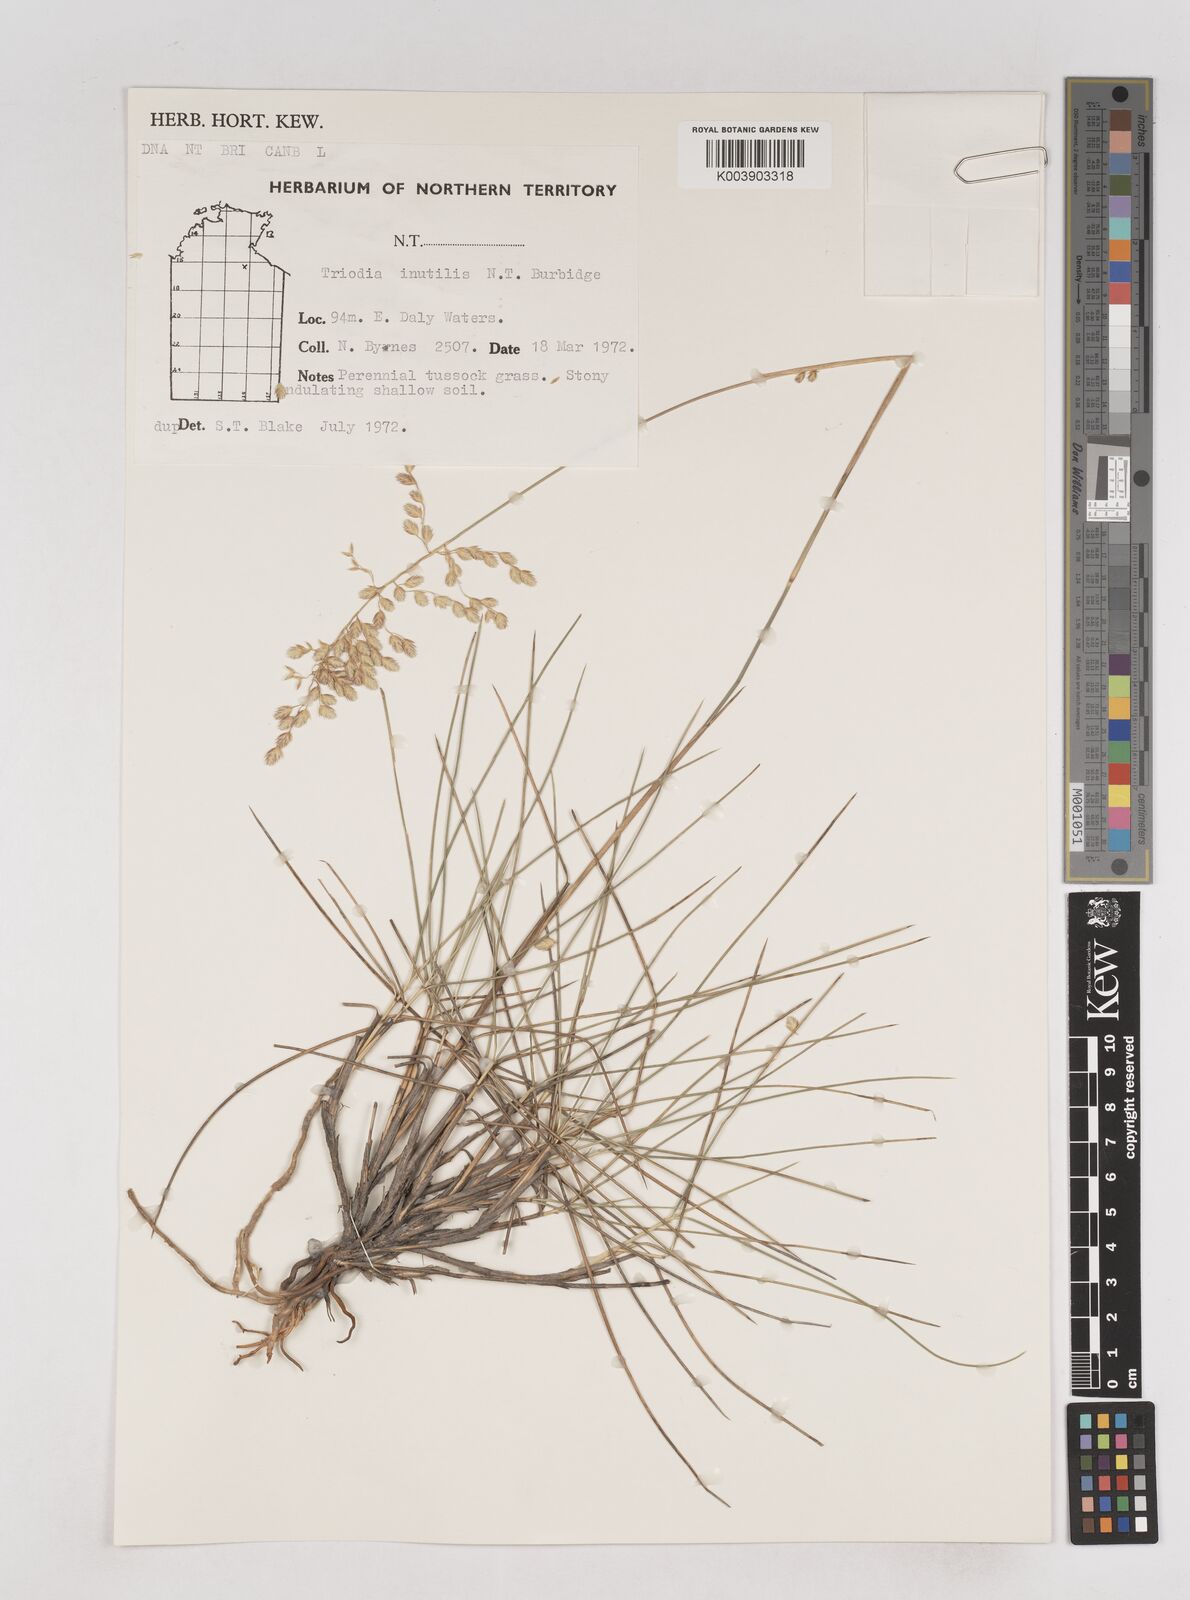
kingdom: Plantae
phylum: Tracheophyta
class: Liliopsida
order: Poales
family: Poaceae
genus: Triodia
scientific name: Triodia inutilis
